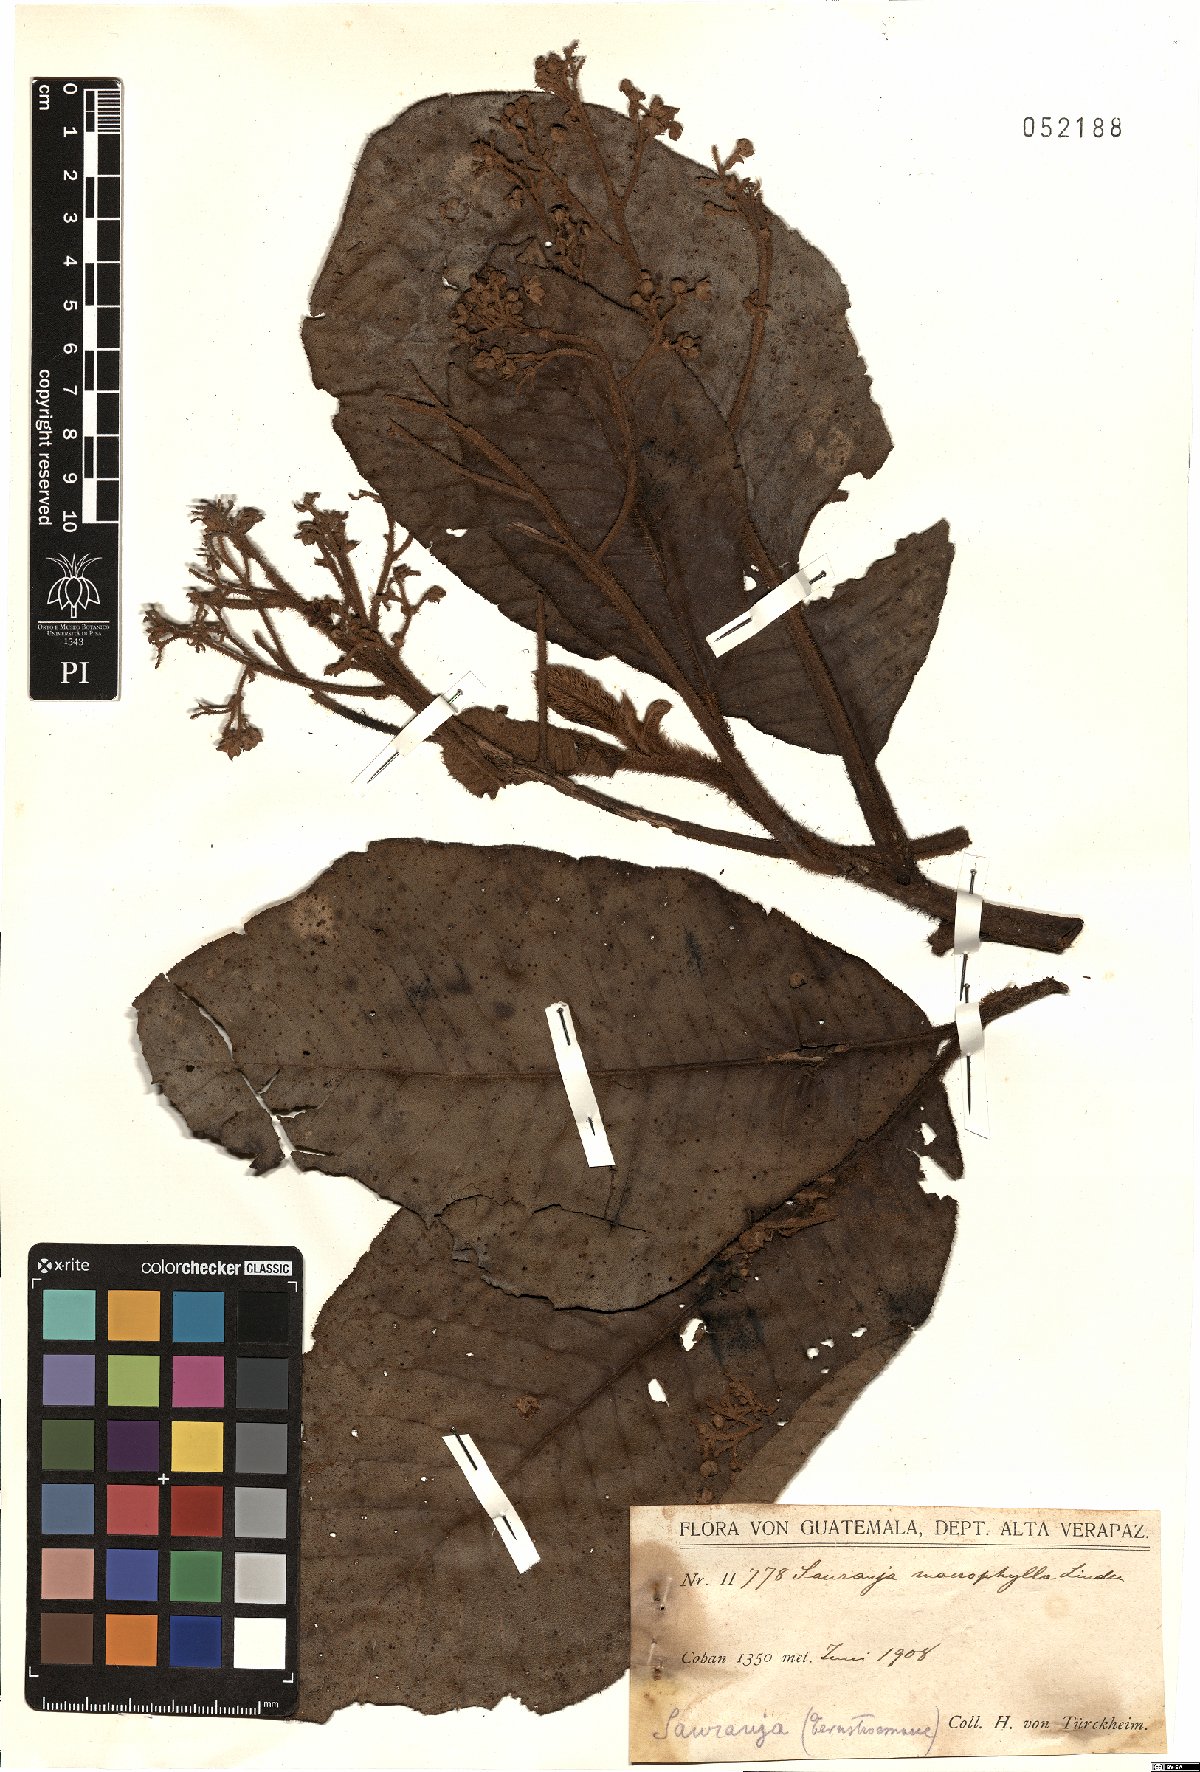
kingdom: Plantae
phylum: Tracheophyta
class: Magnoliopsida
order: Ericales
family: Actinidiaceae
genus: Saurauia
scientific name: Saurauia villosa
